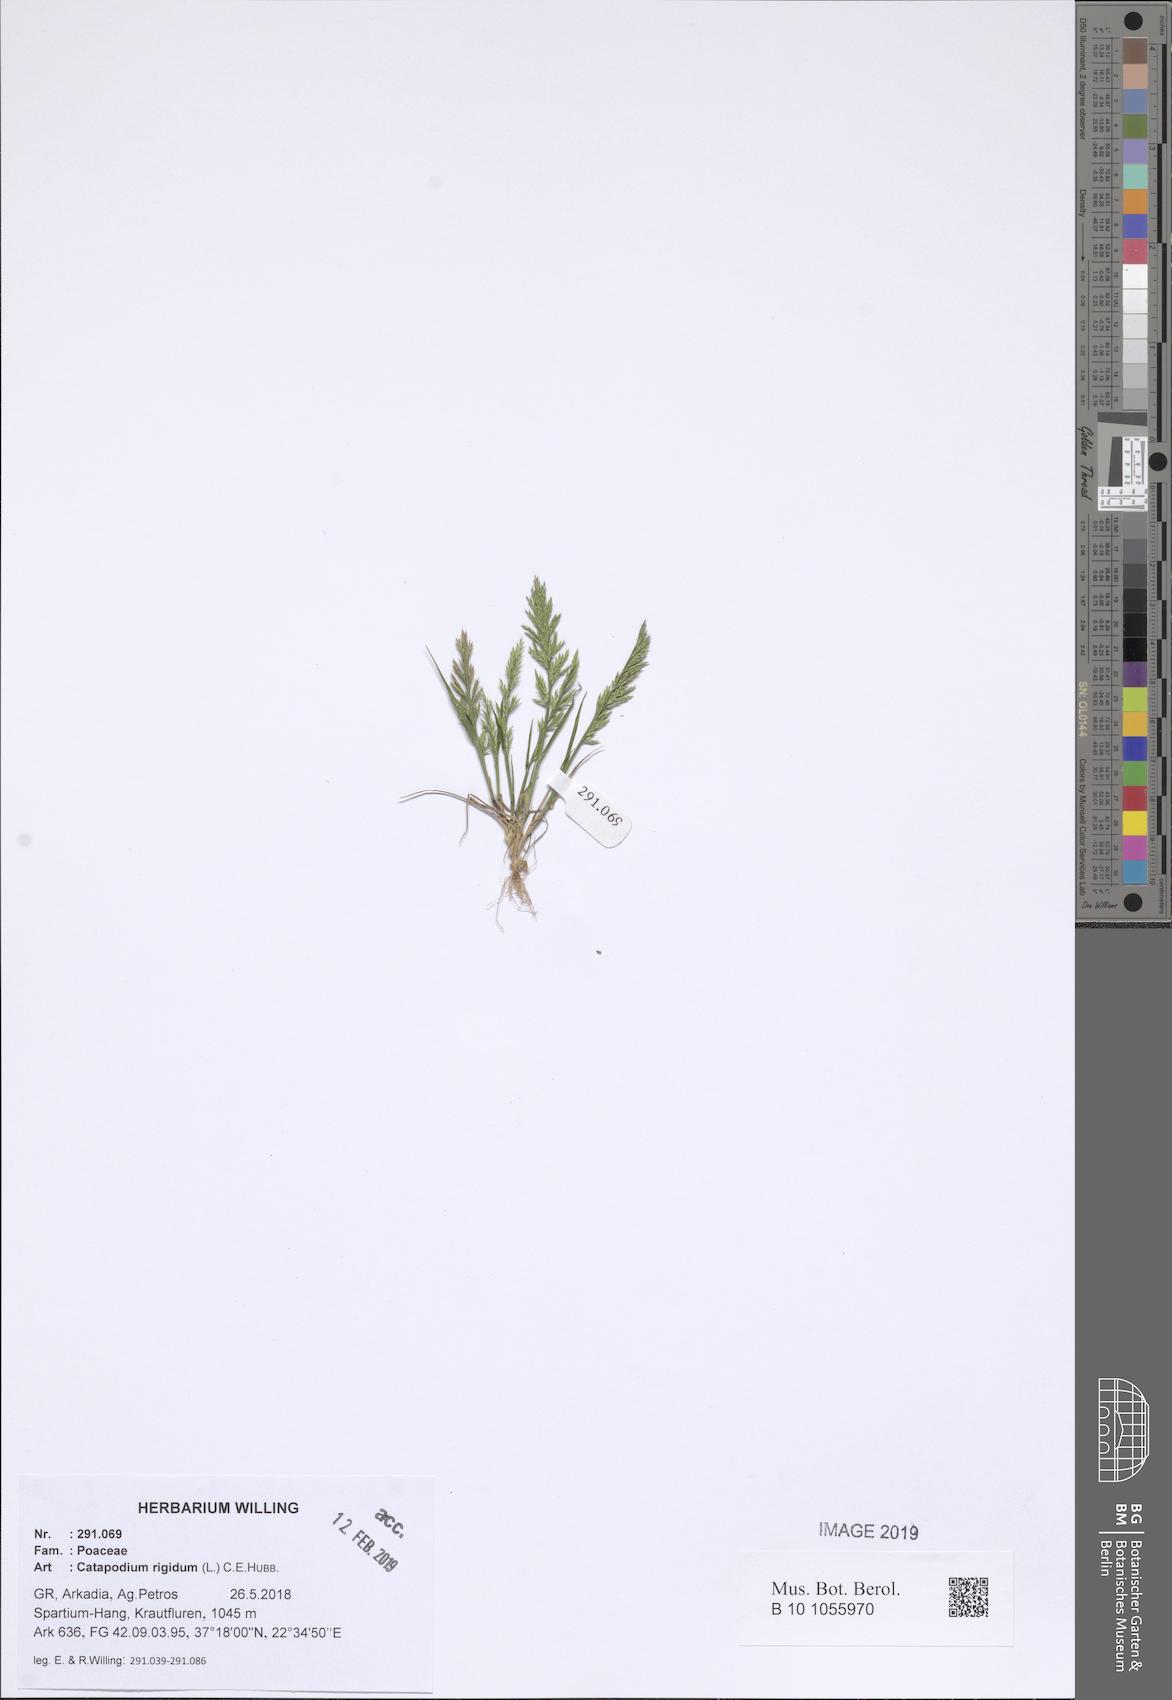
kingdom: Plantae
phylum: Tracheophyta
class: Liliopsida
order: Poales
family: Poaceae
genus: Catapodium
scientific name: Catapodium rigidum
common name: Fern-grass
